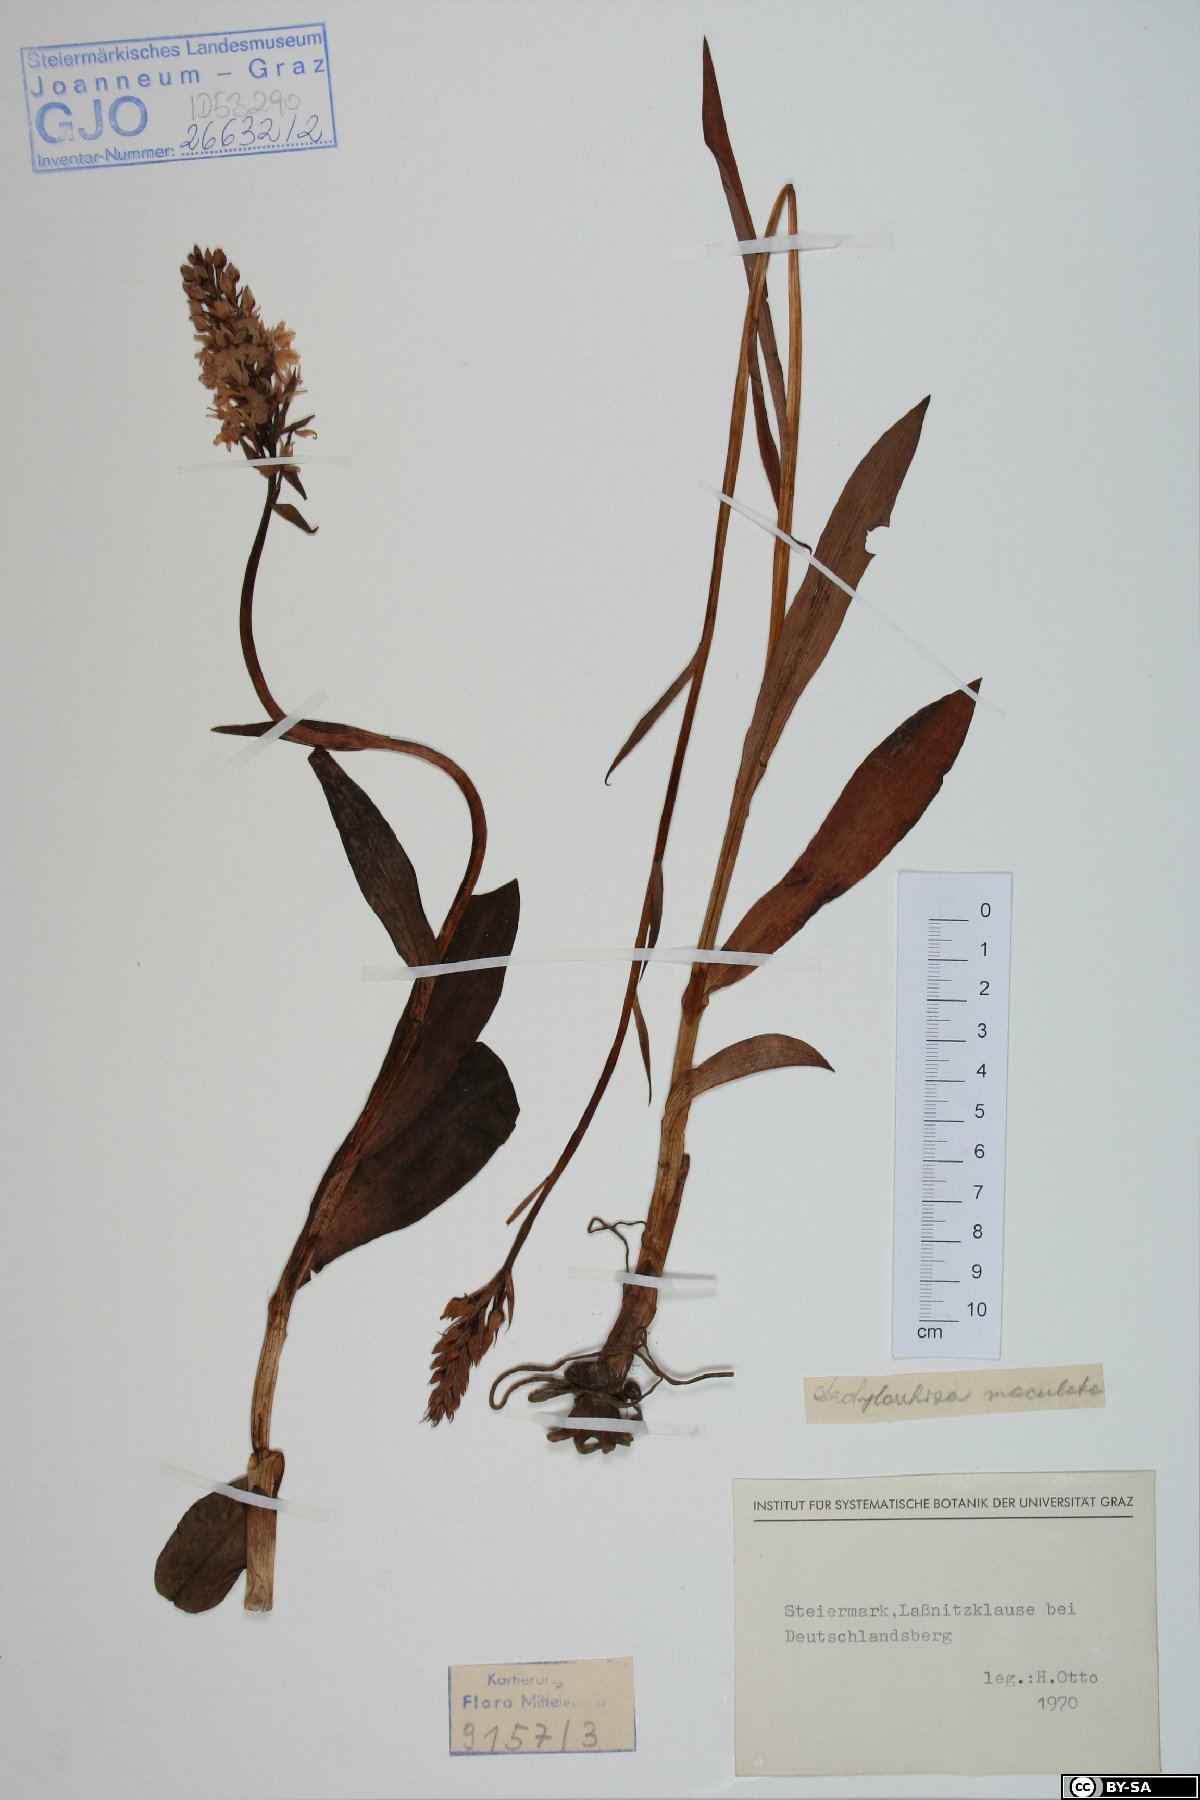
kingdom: Plantae
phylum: Tracheophyta
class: Liliopsida
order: Asparagales
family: Orchidaceae
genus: Dactylorhiza
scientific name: Dactylorhiza maculata
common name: Heath spotted-orchid
